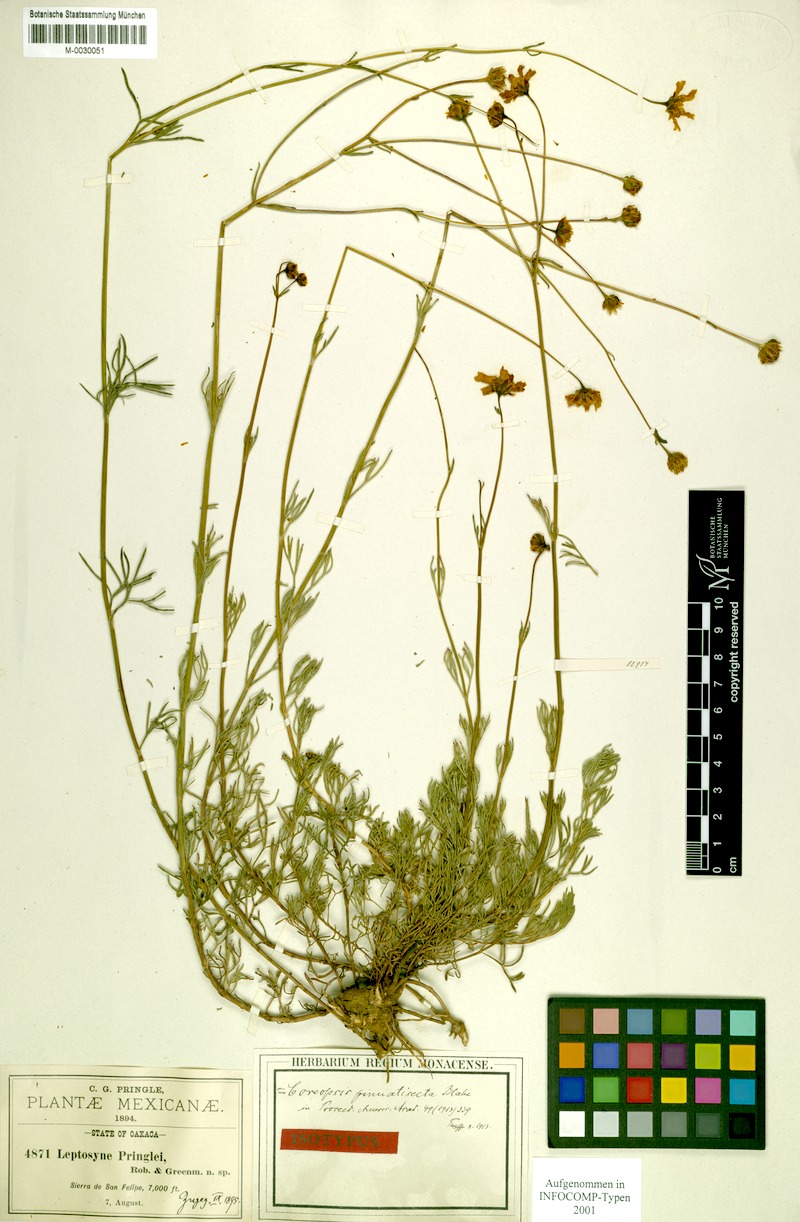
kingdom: Plantae
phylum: Tracheophyta
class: Magnoliopsida
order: Asterales
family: Asteraceae
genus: Heterosperma
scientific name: Heterosperma mexicanum
